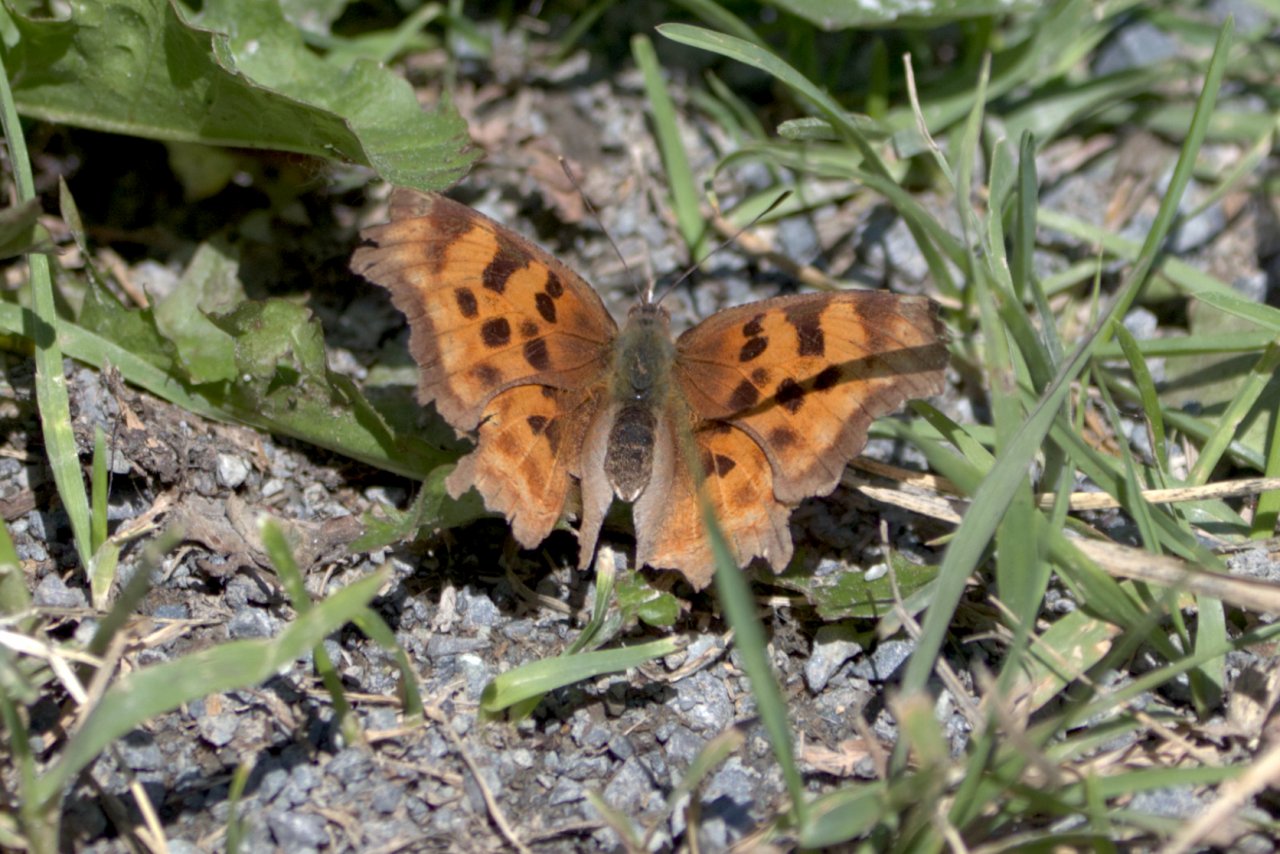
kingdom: Animalia
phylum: Arthropoda
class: Insecta
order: Lepidoptera
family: Nymphalidae
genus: Polygonia
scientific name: Polygonia satyrus
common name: Satyr Comma
